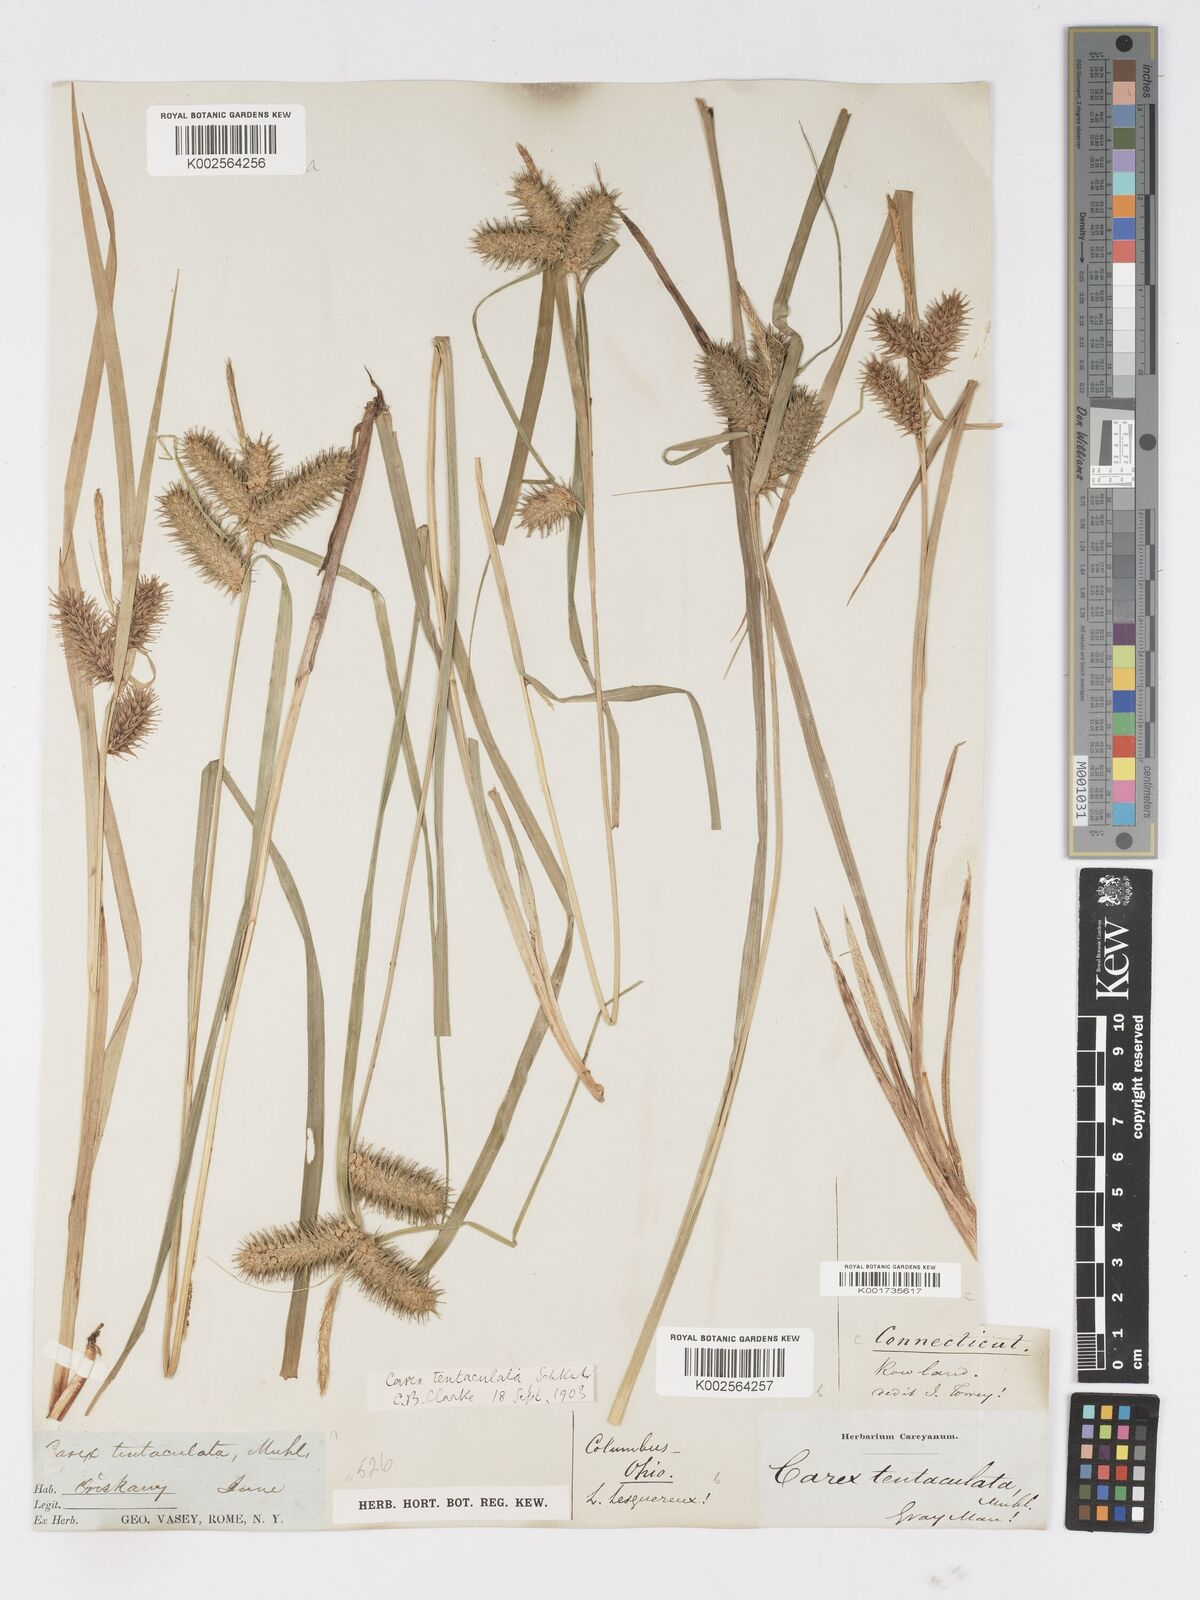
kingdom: Plantae
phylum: Tracheophyta
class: Liliopsida
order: Poales
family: Cyperaceae
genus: Carex
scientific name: Carex lurida
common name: Sallow sedge
